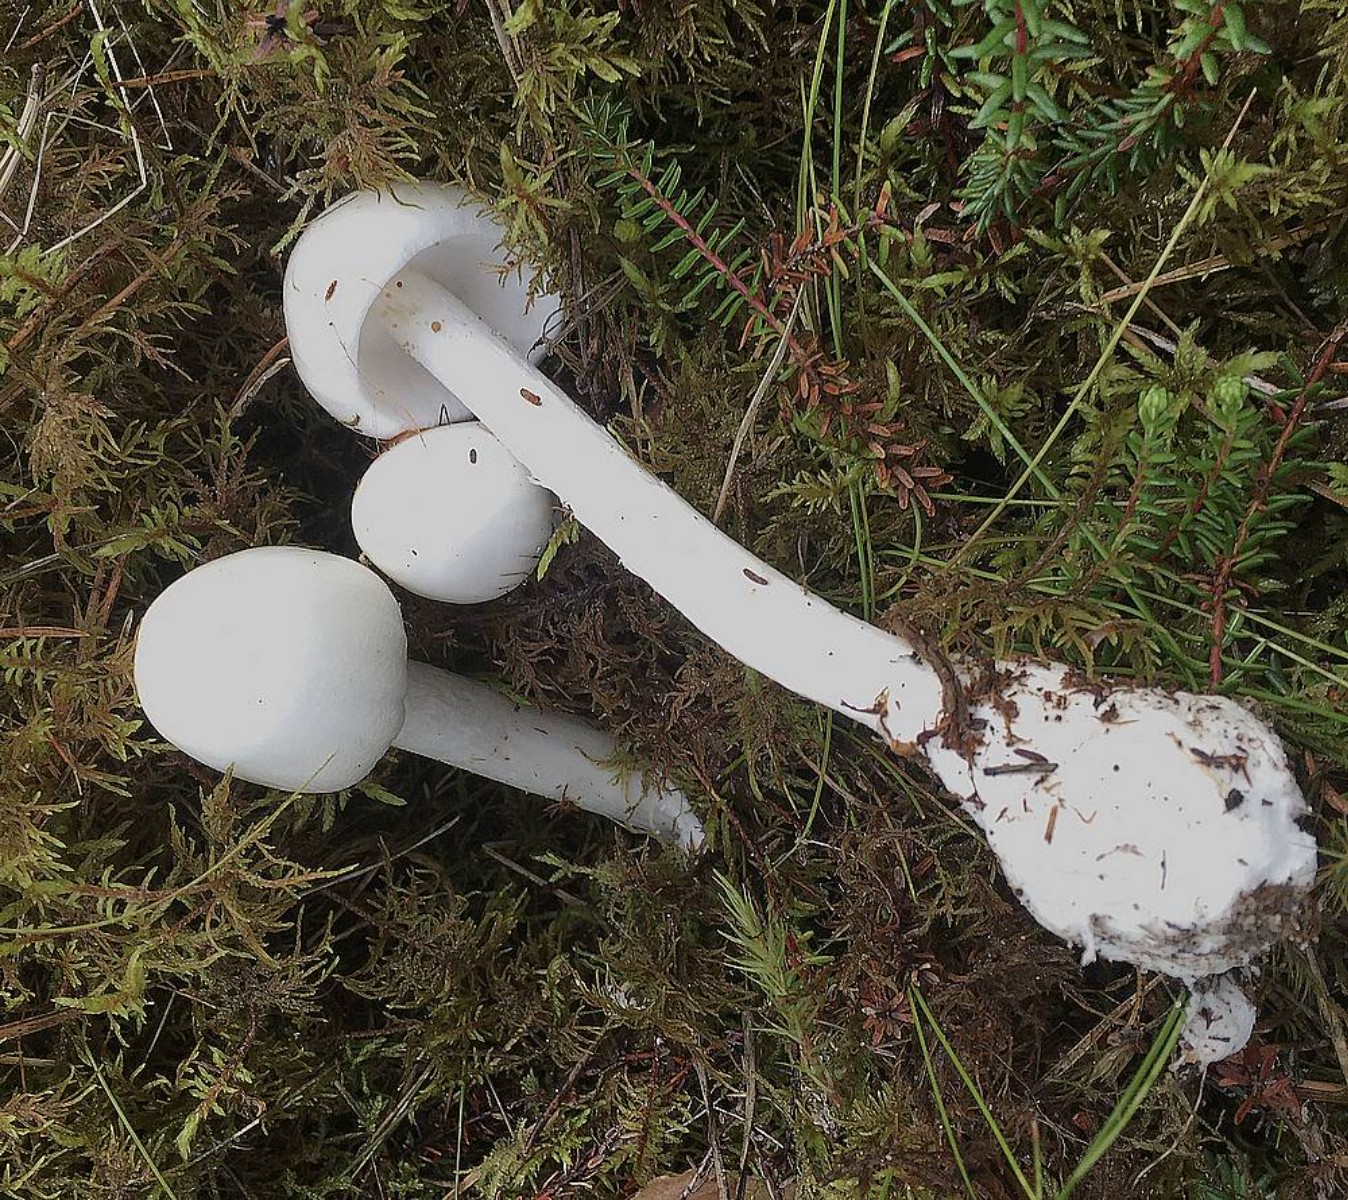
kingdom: Fungi
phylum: Basidiomycota
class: Agaricomycetes
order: Agaricales
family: Amanitaceae
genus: Amanita
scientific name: Amanita virosa
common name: snehvid fluesvamp
